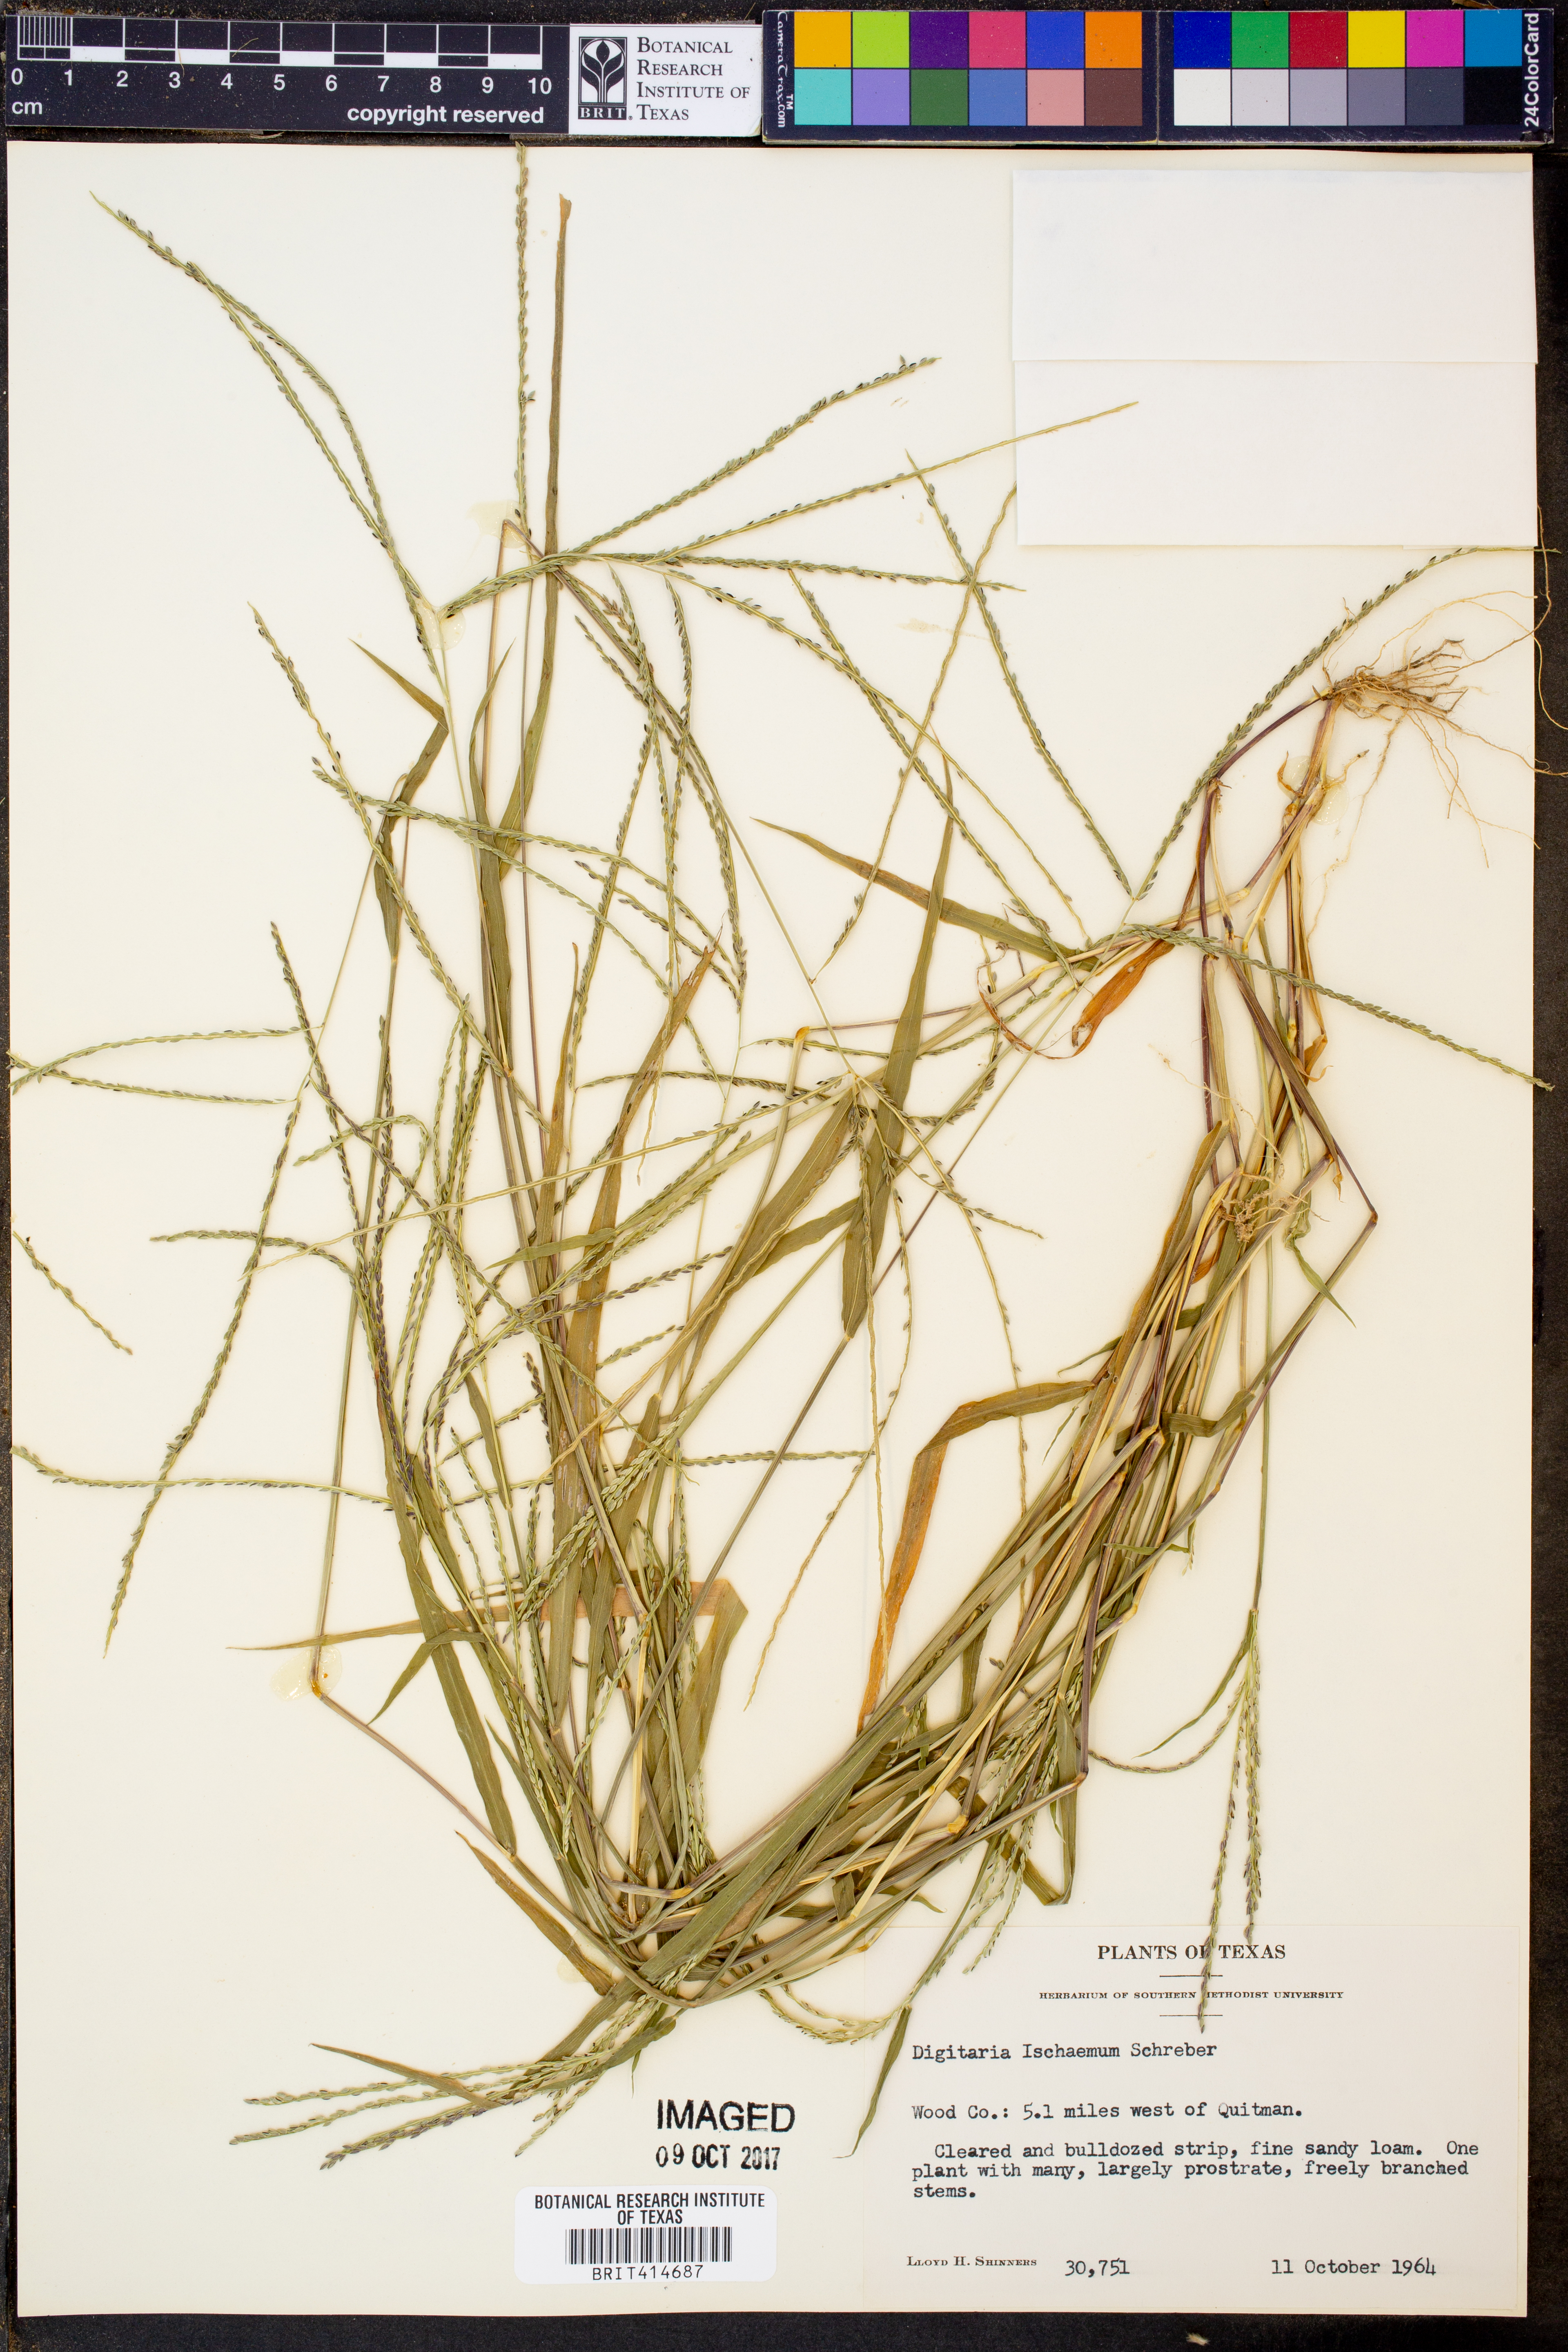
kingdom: Plantae
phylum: Tracheophyta
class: Liliopsida
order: Poales
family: Poaceae
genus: Digitaria
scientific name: Digitaria ischaemum
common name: Smooth crabgrass
